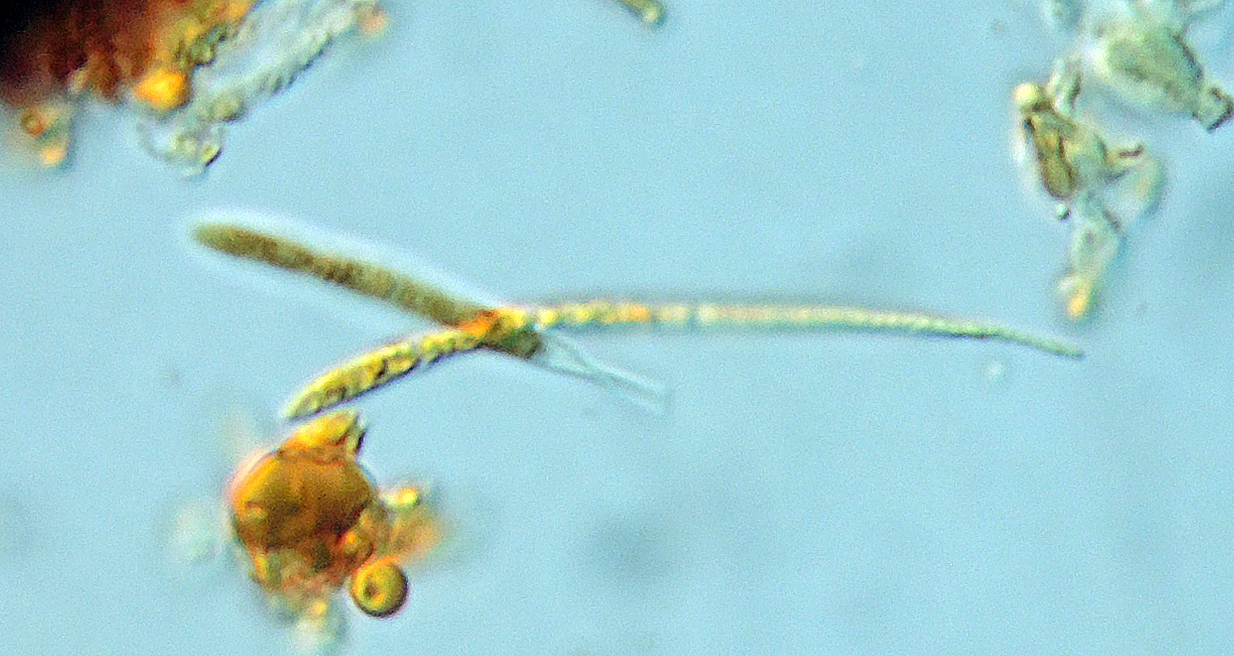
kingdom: Fungi
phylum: Ascomycota
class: Lecanoromycetes
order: Lecanorales
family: Ramalinaceae
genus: Bacidina
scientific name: Bacidina
